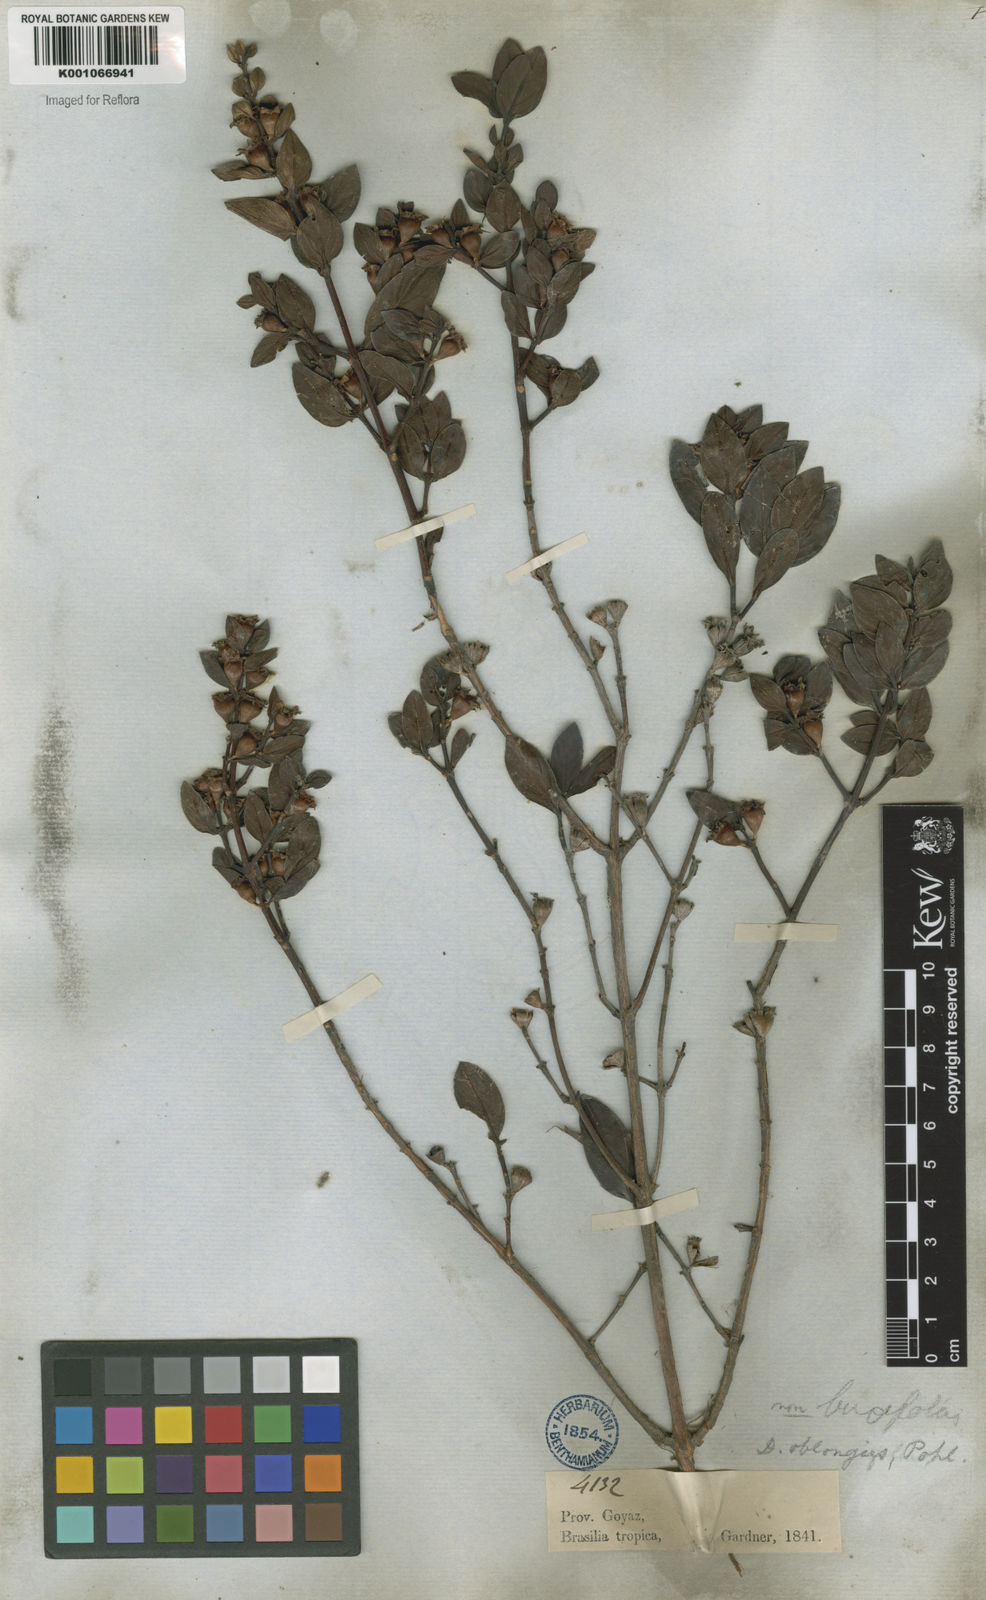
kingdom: Plantae
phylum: Tracheophyta
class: Magnoliopsida
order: Myrtales
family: Lythraceae
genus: Diplusodon
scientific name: Diplusodon oblongus
